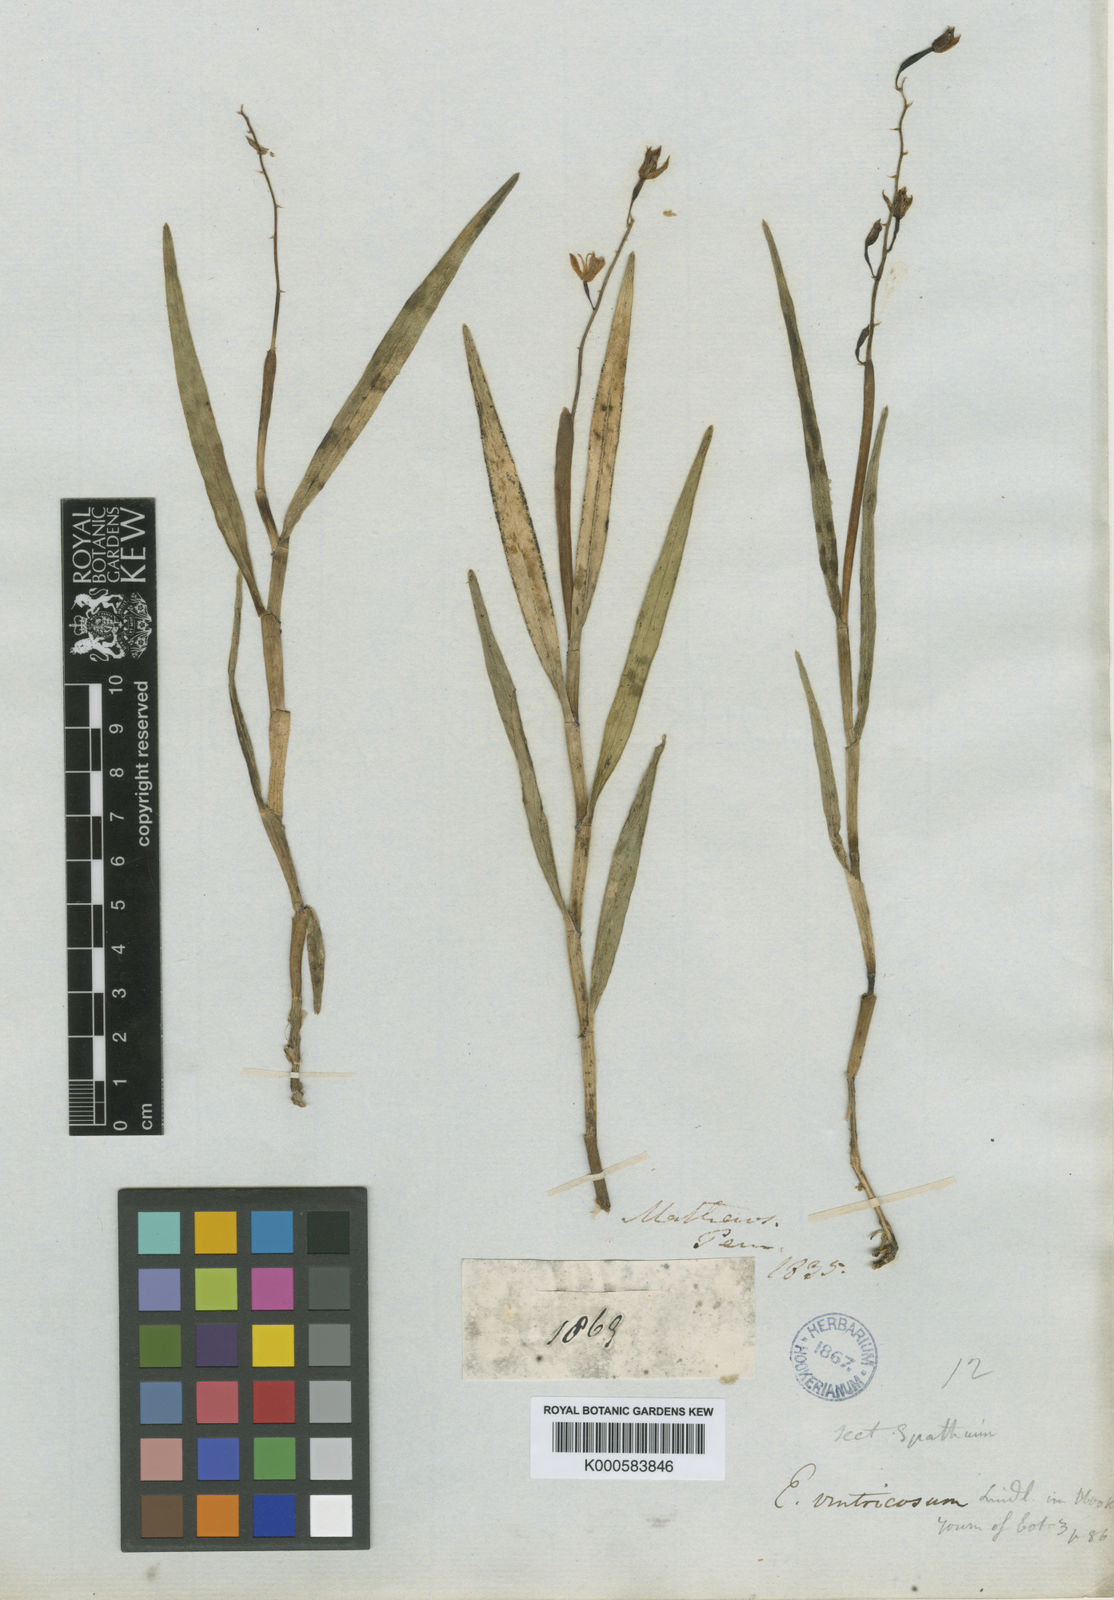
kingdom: Plantae
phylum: Tracheophyta
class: Liliopsida
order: Asparagales
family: Orchidaceae
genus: Epidendrum
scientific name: Epidendrum ventricosum
